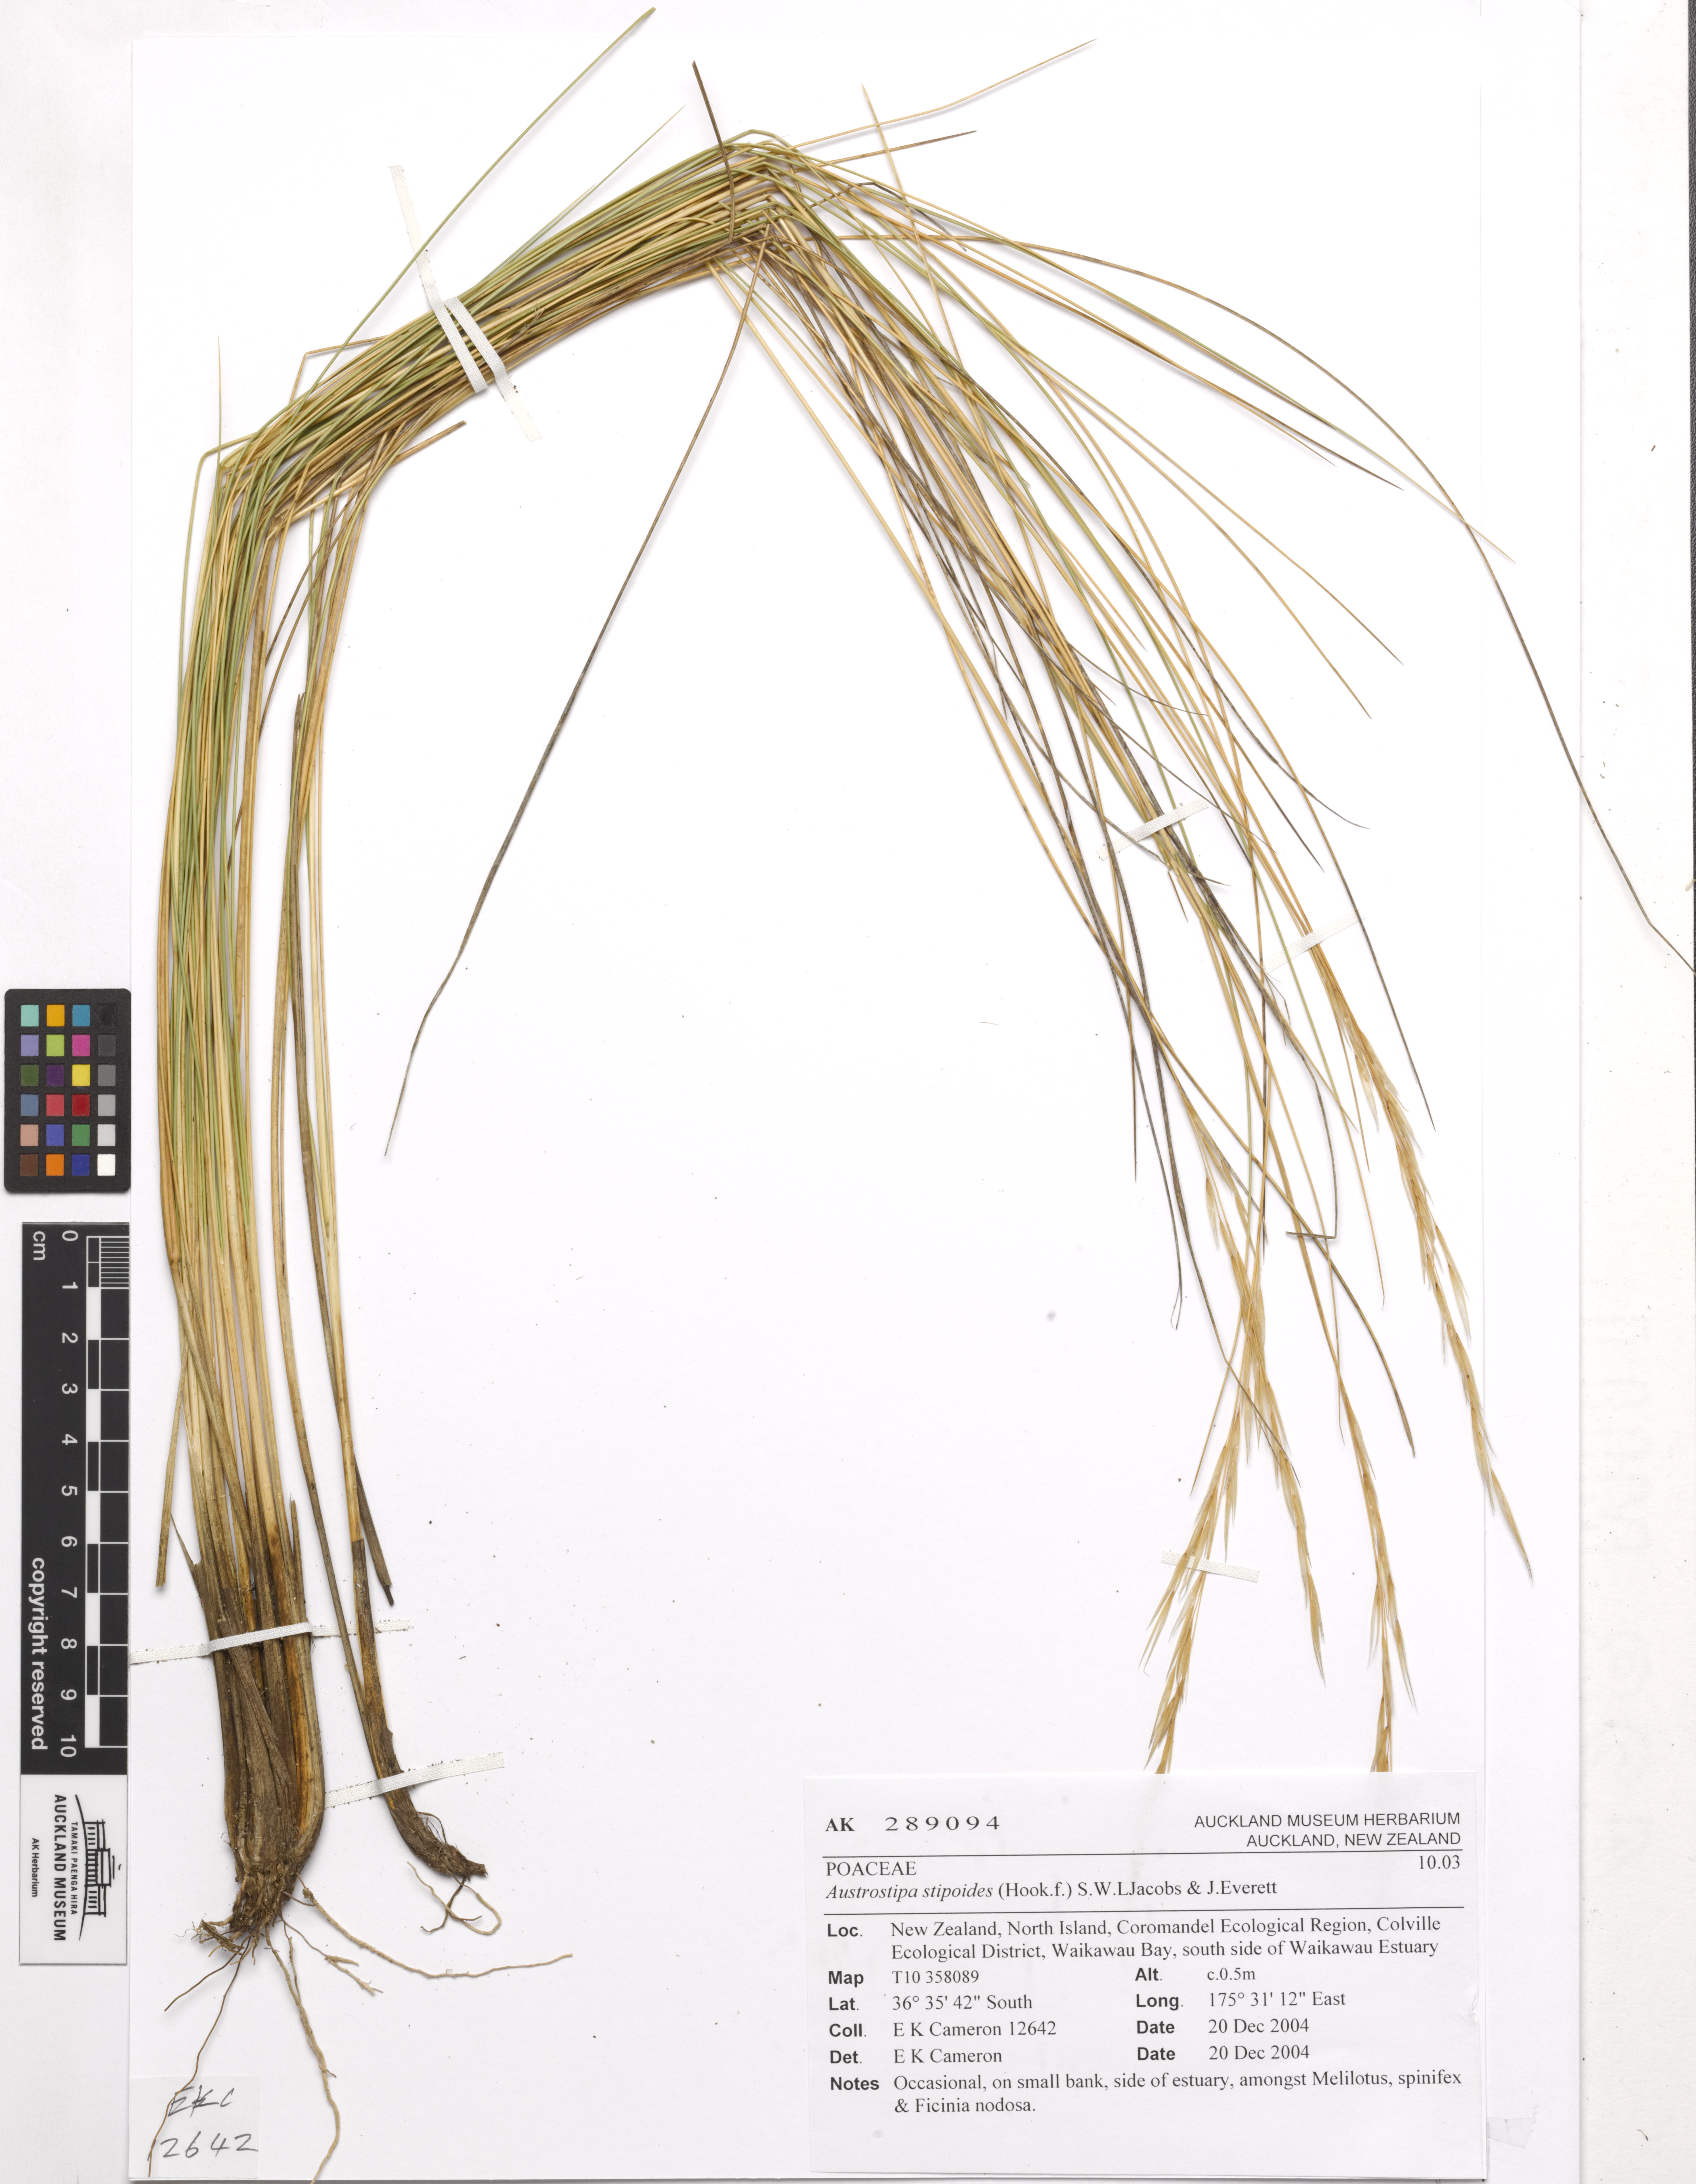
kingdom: Plantae
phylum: Tracheophyta
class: Liliopsida
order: Poales
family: Poaceae
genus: Austrostipa
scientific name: Austrostipa stipoides
